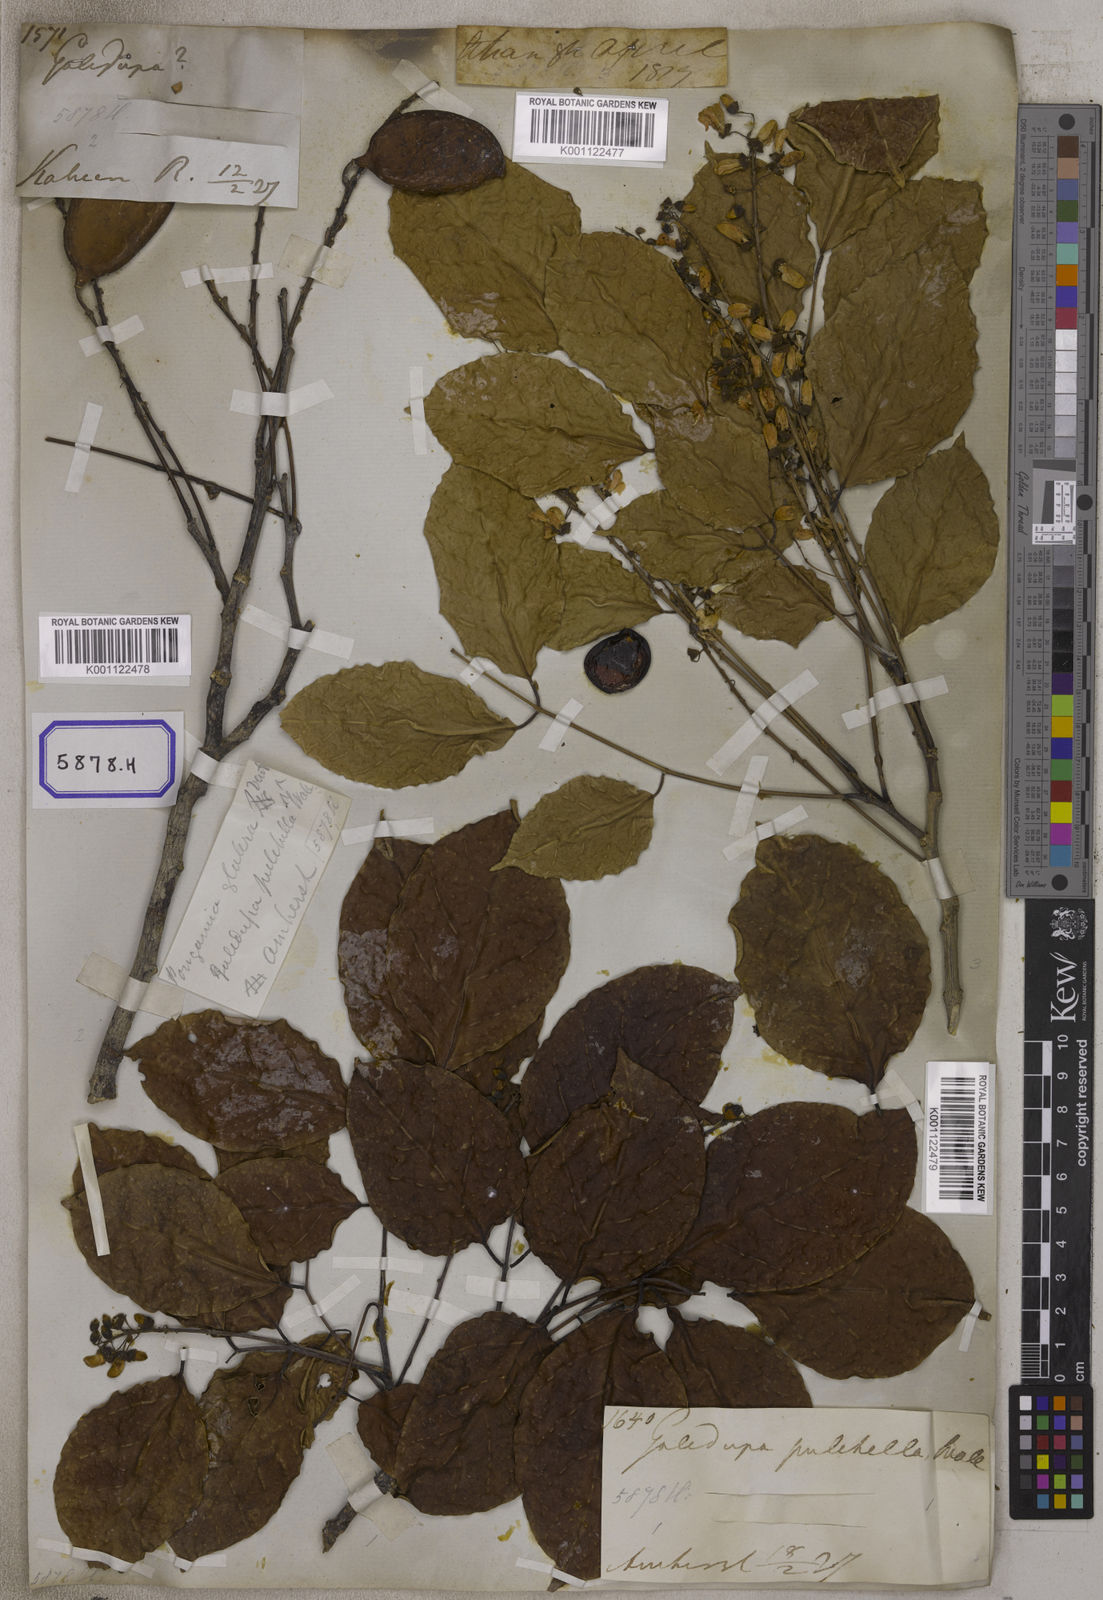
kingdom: Plantae
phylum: Tracheophyta
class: Magnoliopsida
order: Fabales
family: Fabaceae
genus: Pongamia
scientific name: Pongamia pinnata
